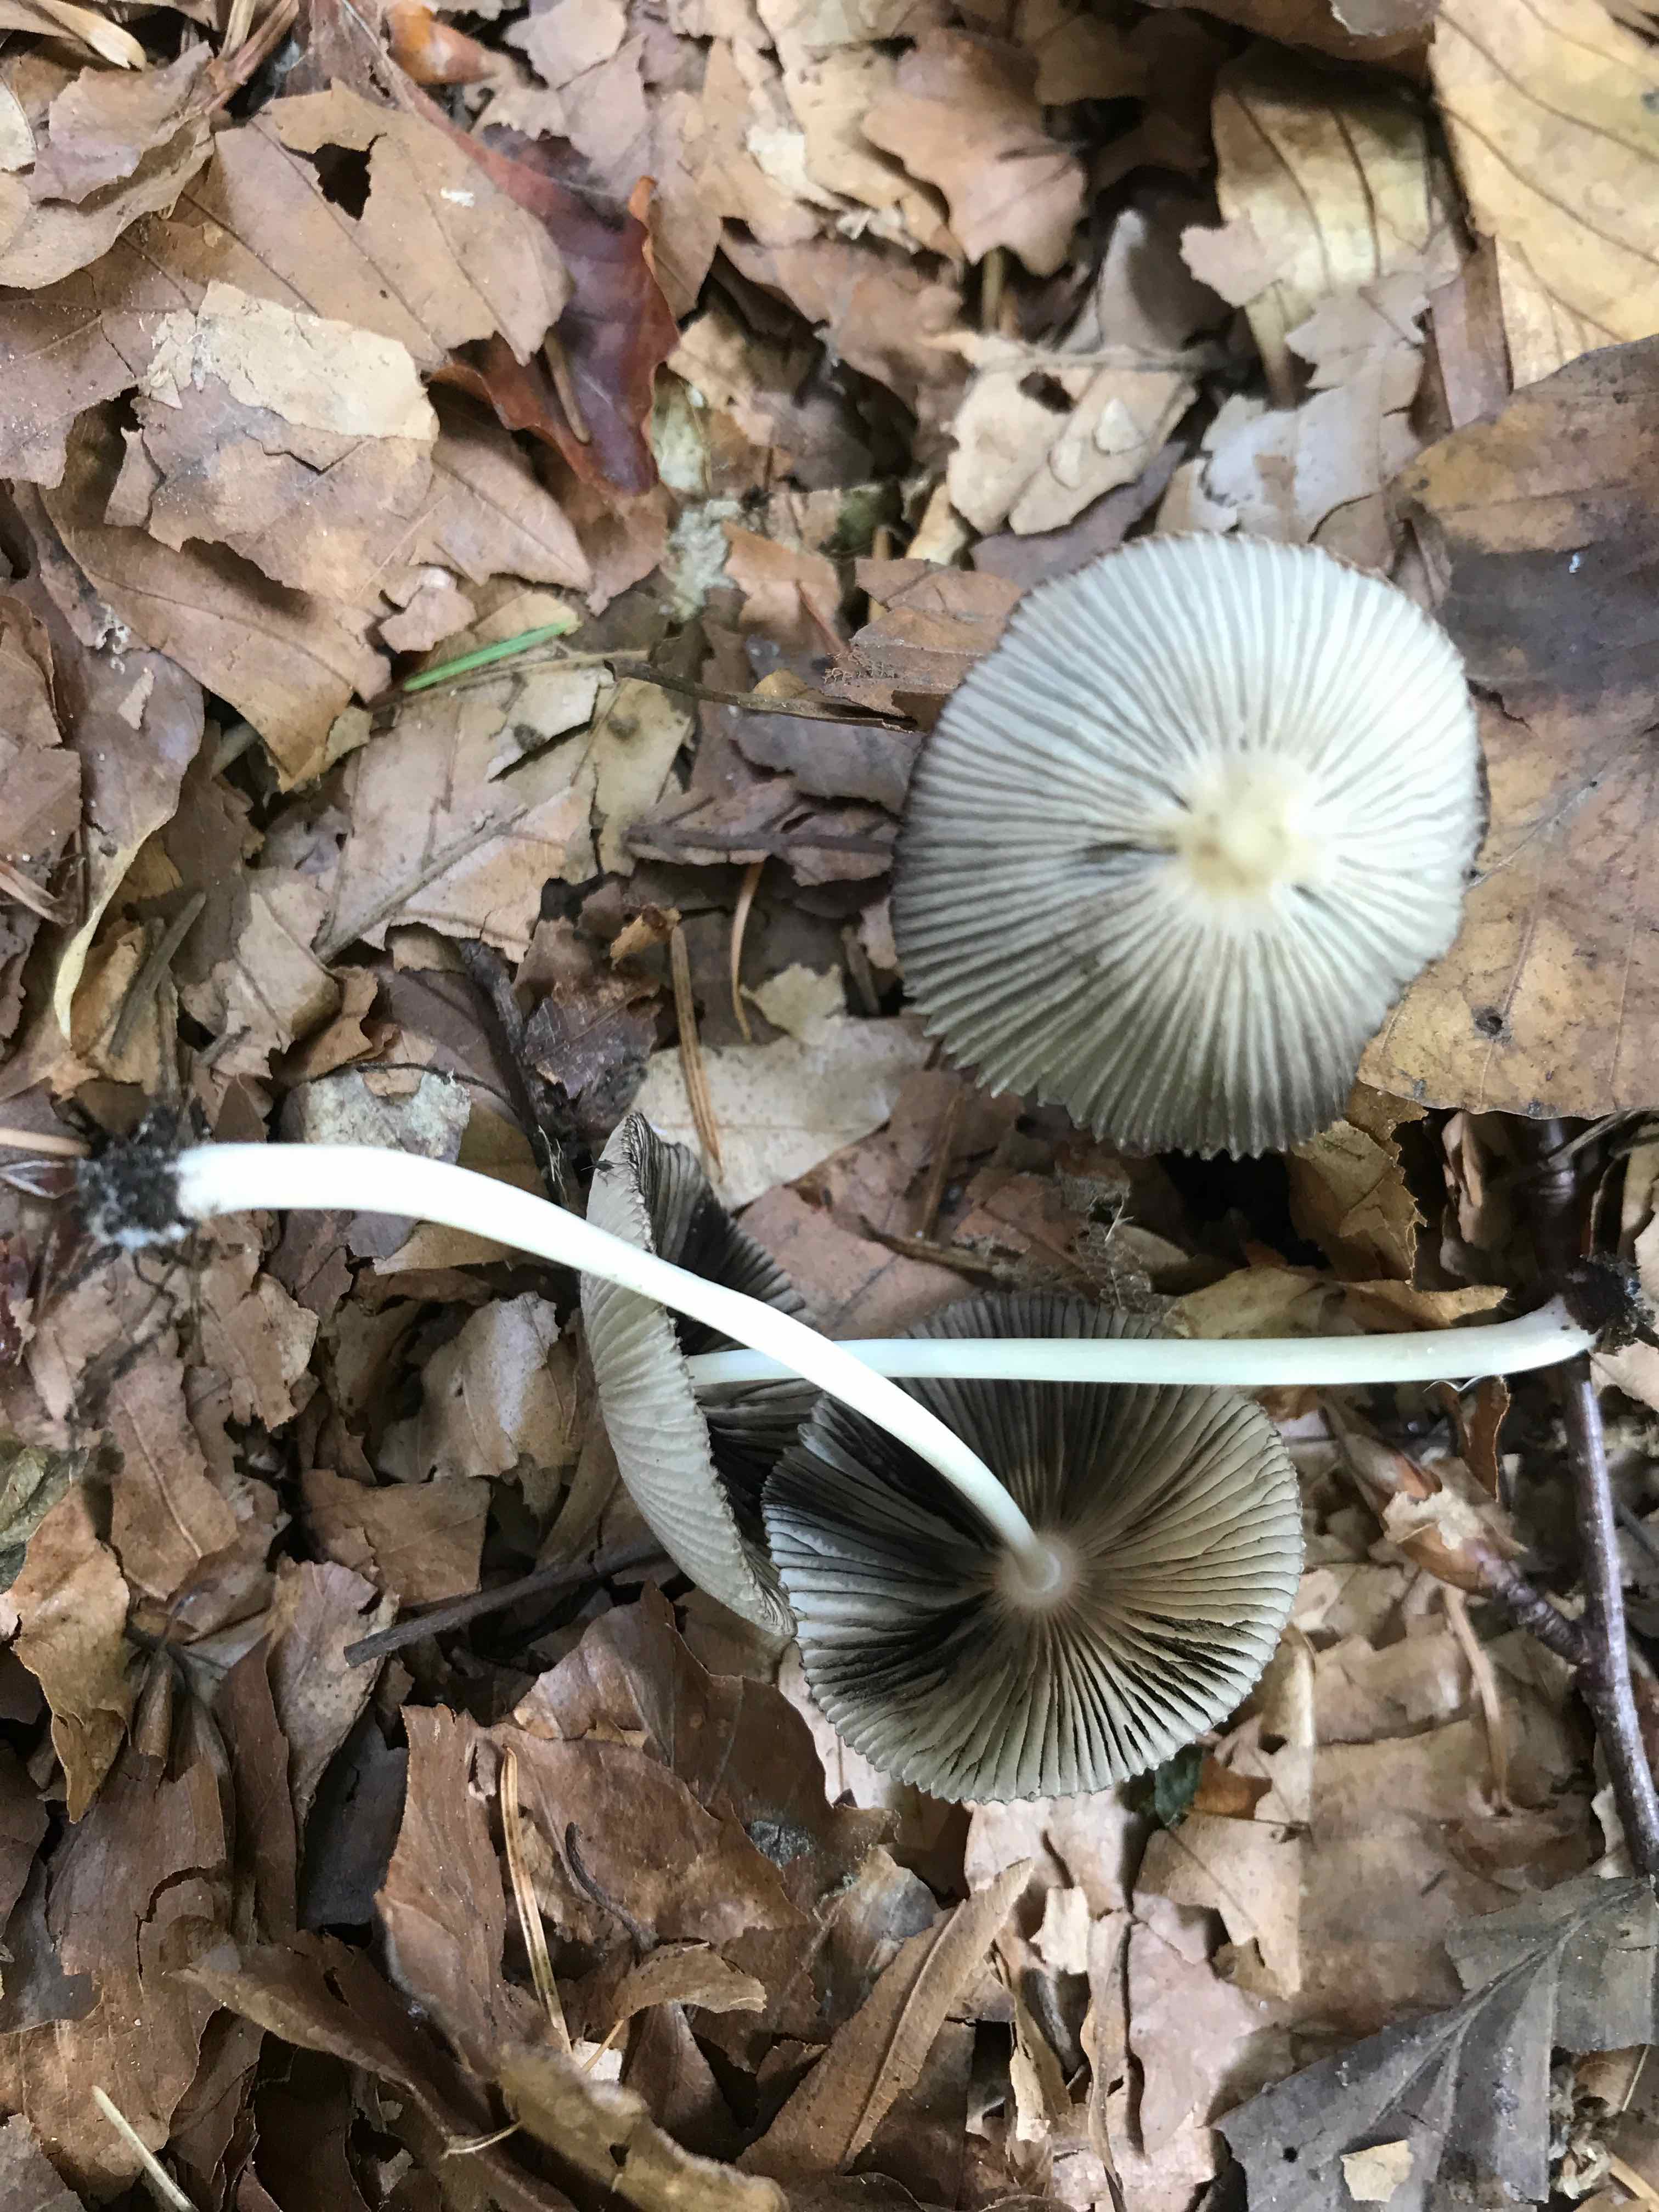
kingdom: Fungi
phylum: Basidiomycota
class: Agaricomycetes
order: Agaricales
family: Psathyrellaceae
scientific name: Psathyrellaceae
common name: mørkhatfamilien
